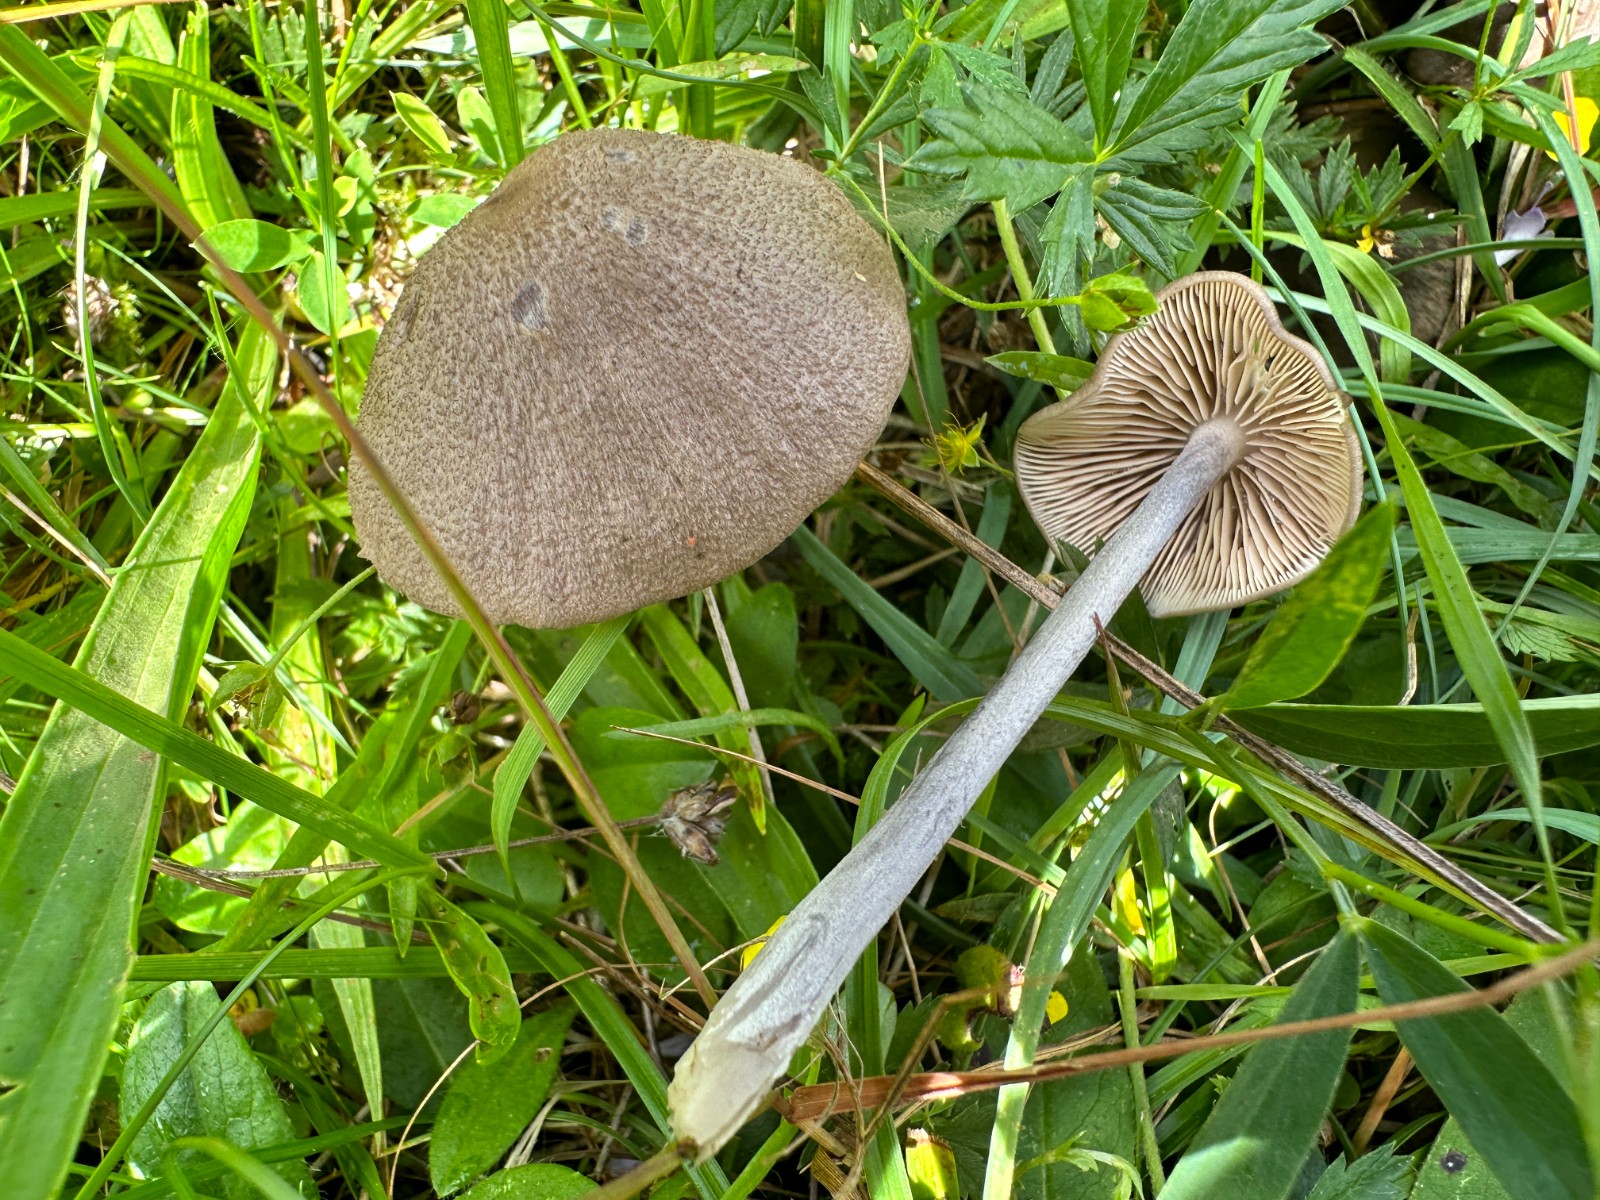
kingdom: Fungi
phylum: Basidiomycota
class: Agaricomycetes
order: Agaricales
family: Entolomataceae
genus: Entoloma
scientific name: Entoloma griseocyaneum
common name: gråblå rødblad
